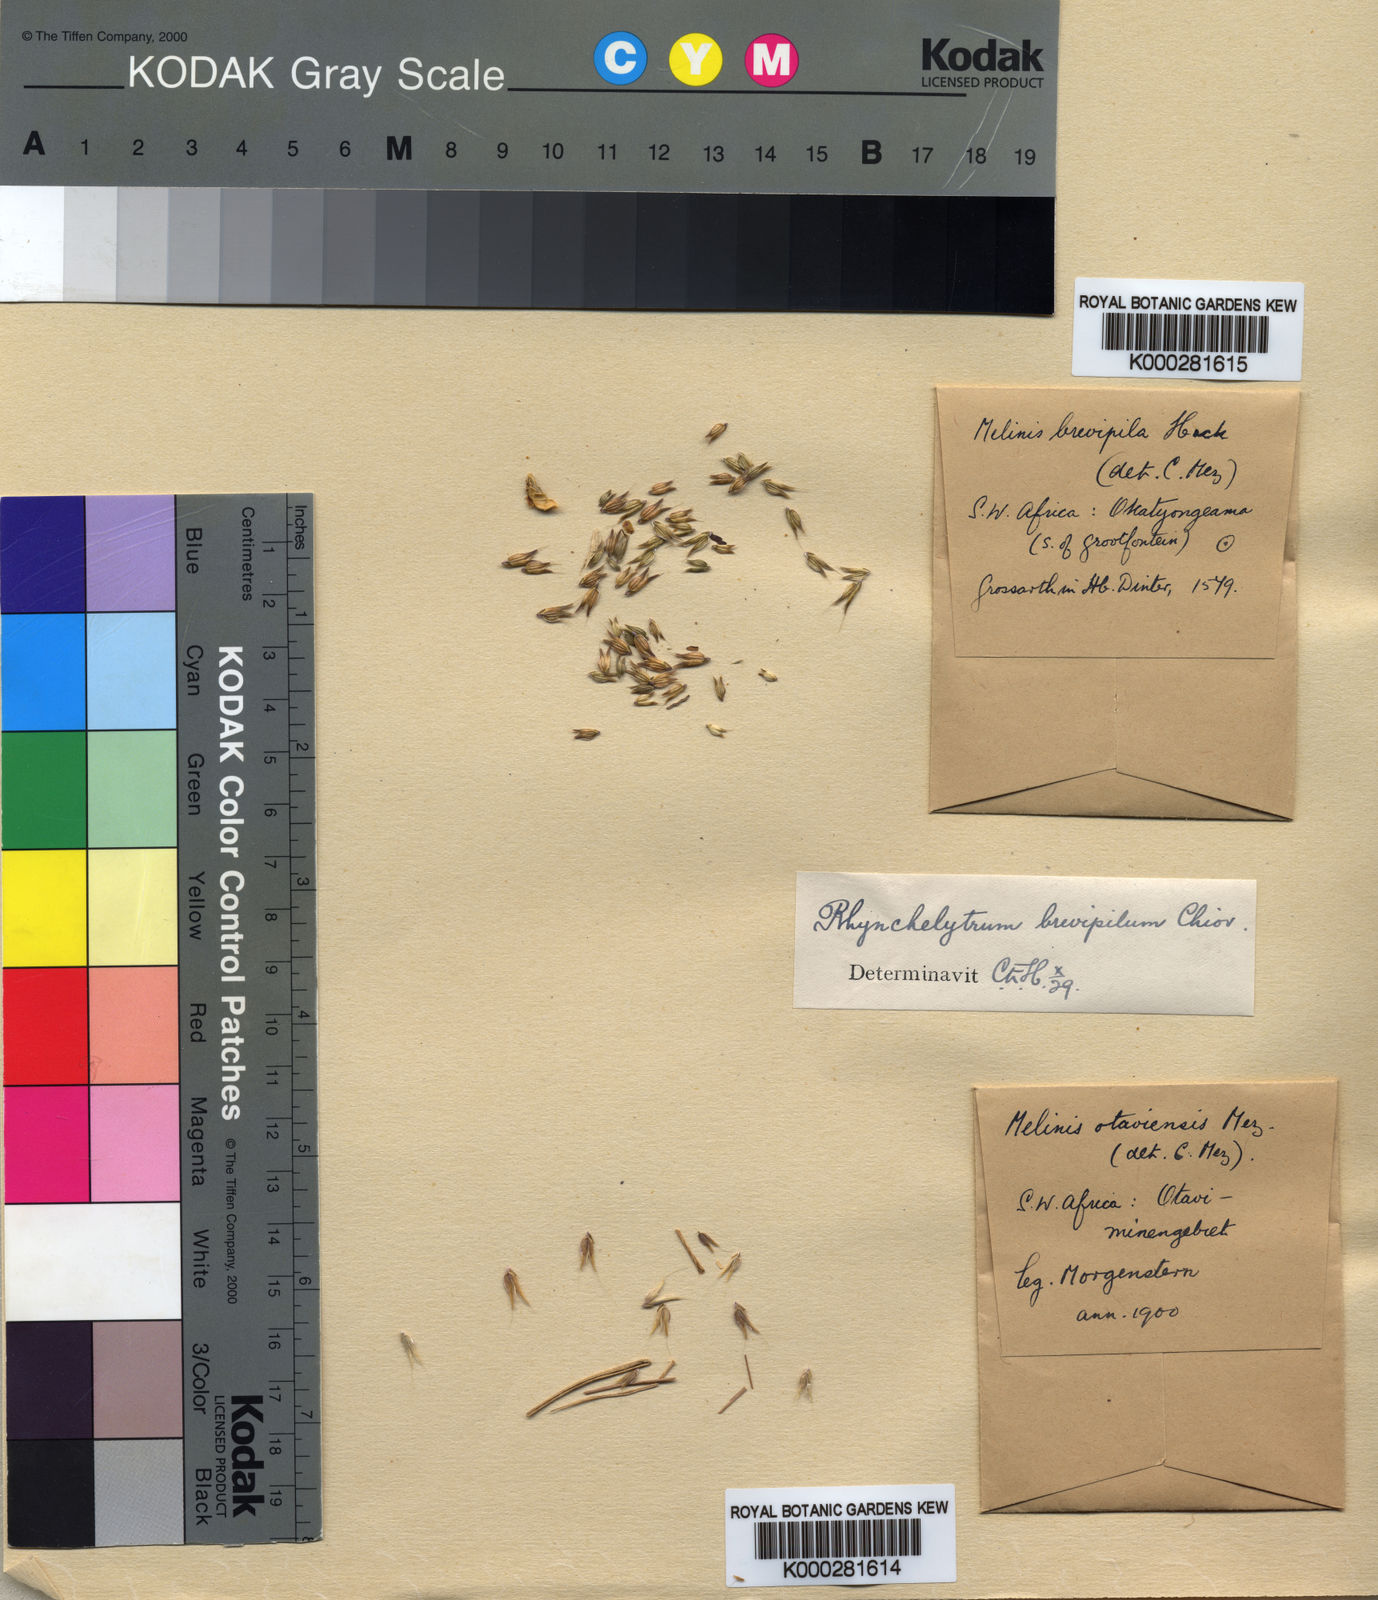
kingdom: Plantae
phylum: Tracheophyta
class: Liliopsida
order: Poales
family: Poaceae
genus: Melinis
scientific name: Melinis repens
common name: Rose natal grass
